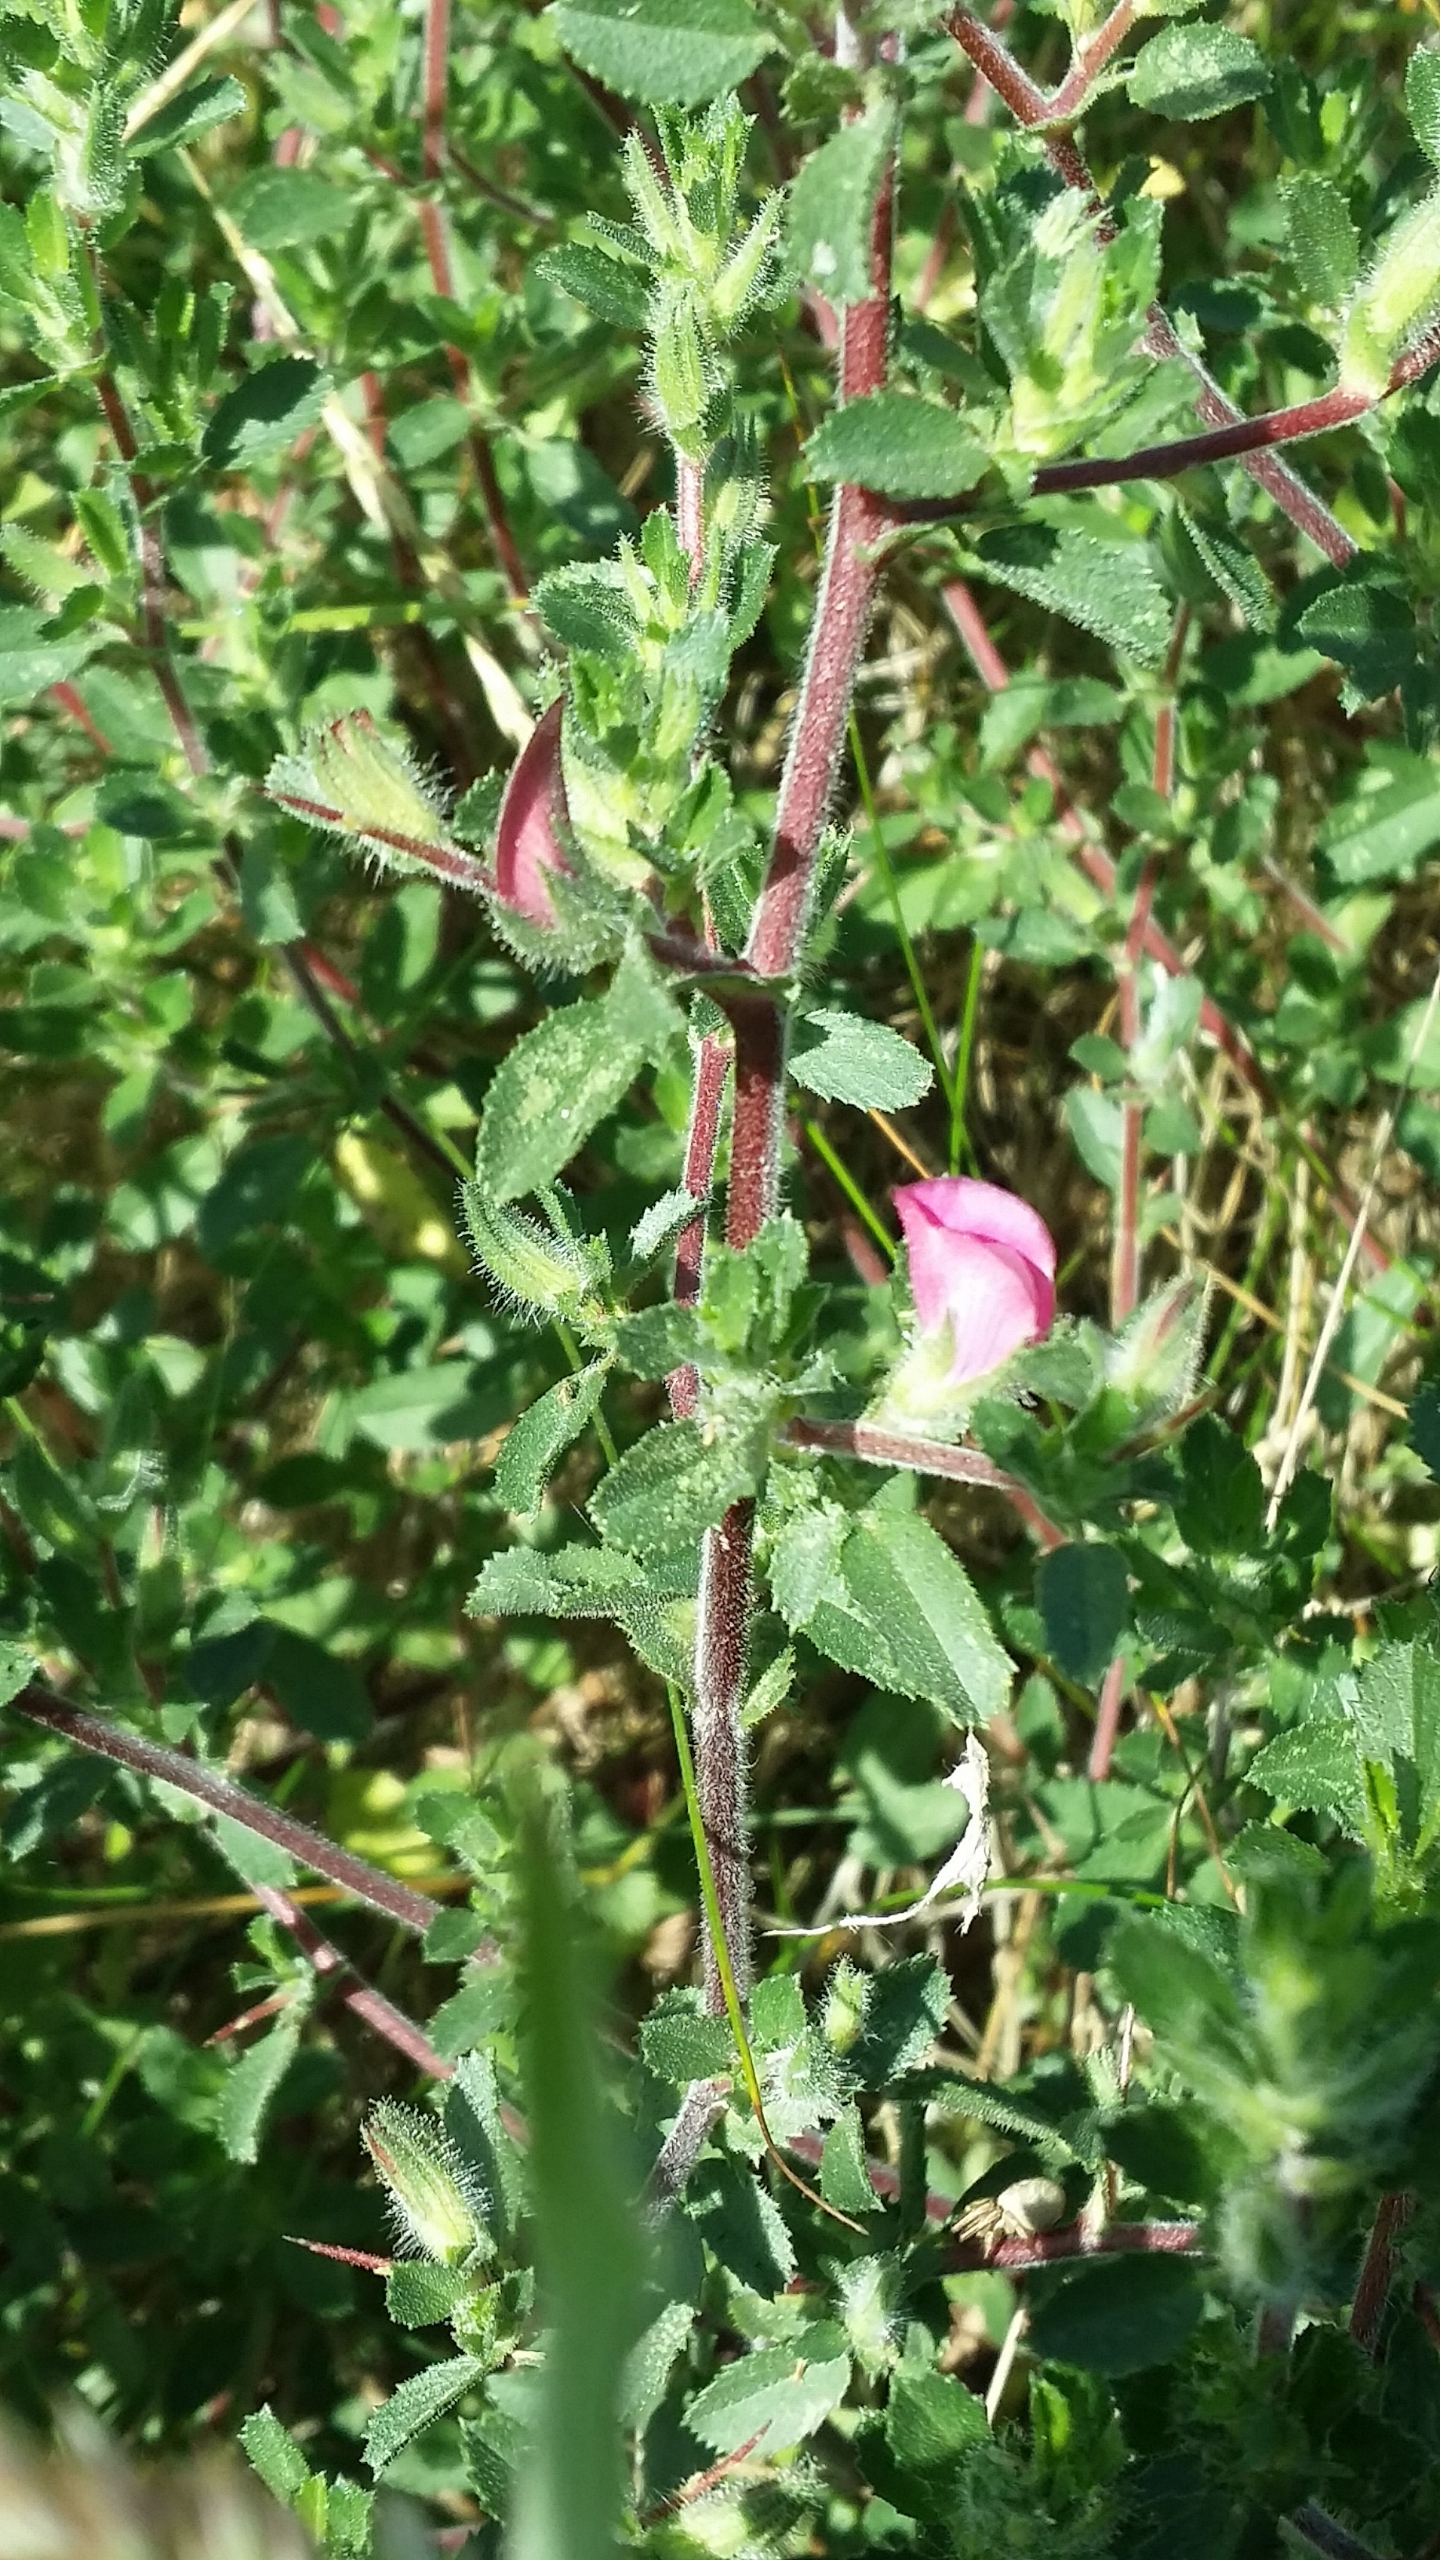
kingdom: Plantae
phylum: Tracheophyta
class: Magnoliopsida
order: Fabales
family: Fabaceae
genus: Ononis
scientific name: Ononis
